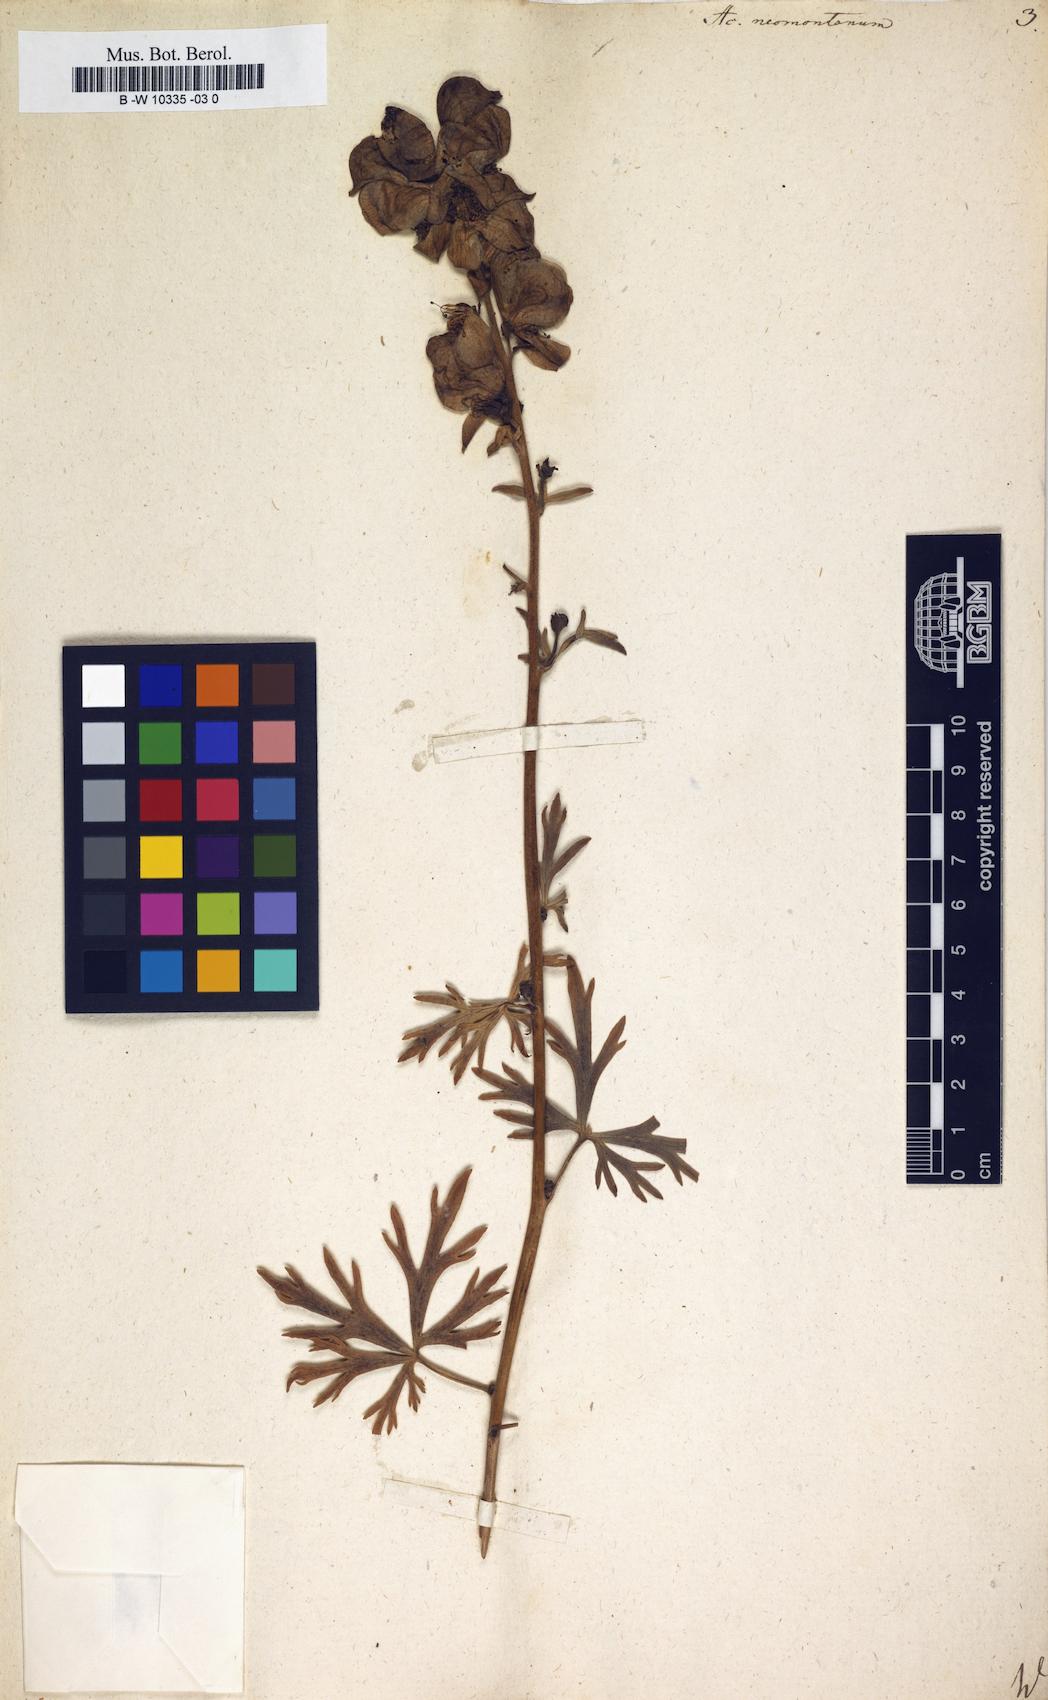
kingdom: Plantae
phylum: Tracheophyta
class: Magnoliopsida
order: Ranunculales
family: Ranunculaceae
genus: Aconitum
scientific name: Aconitum napellus
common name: Garden monkshood
